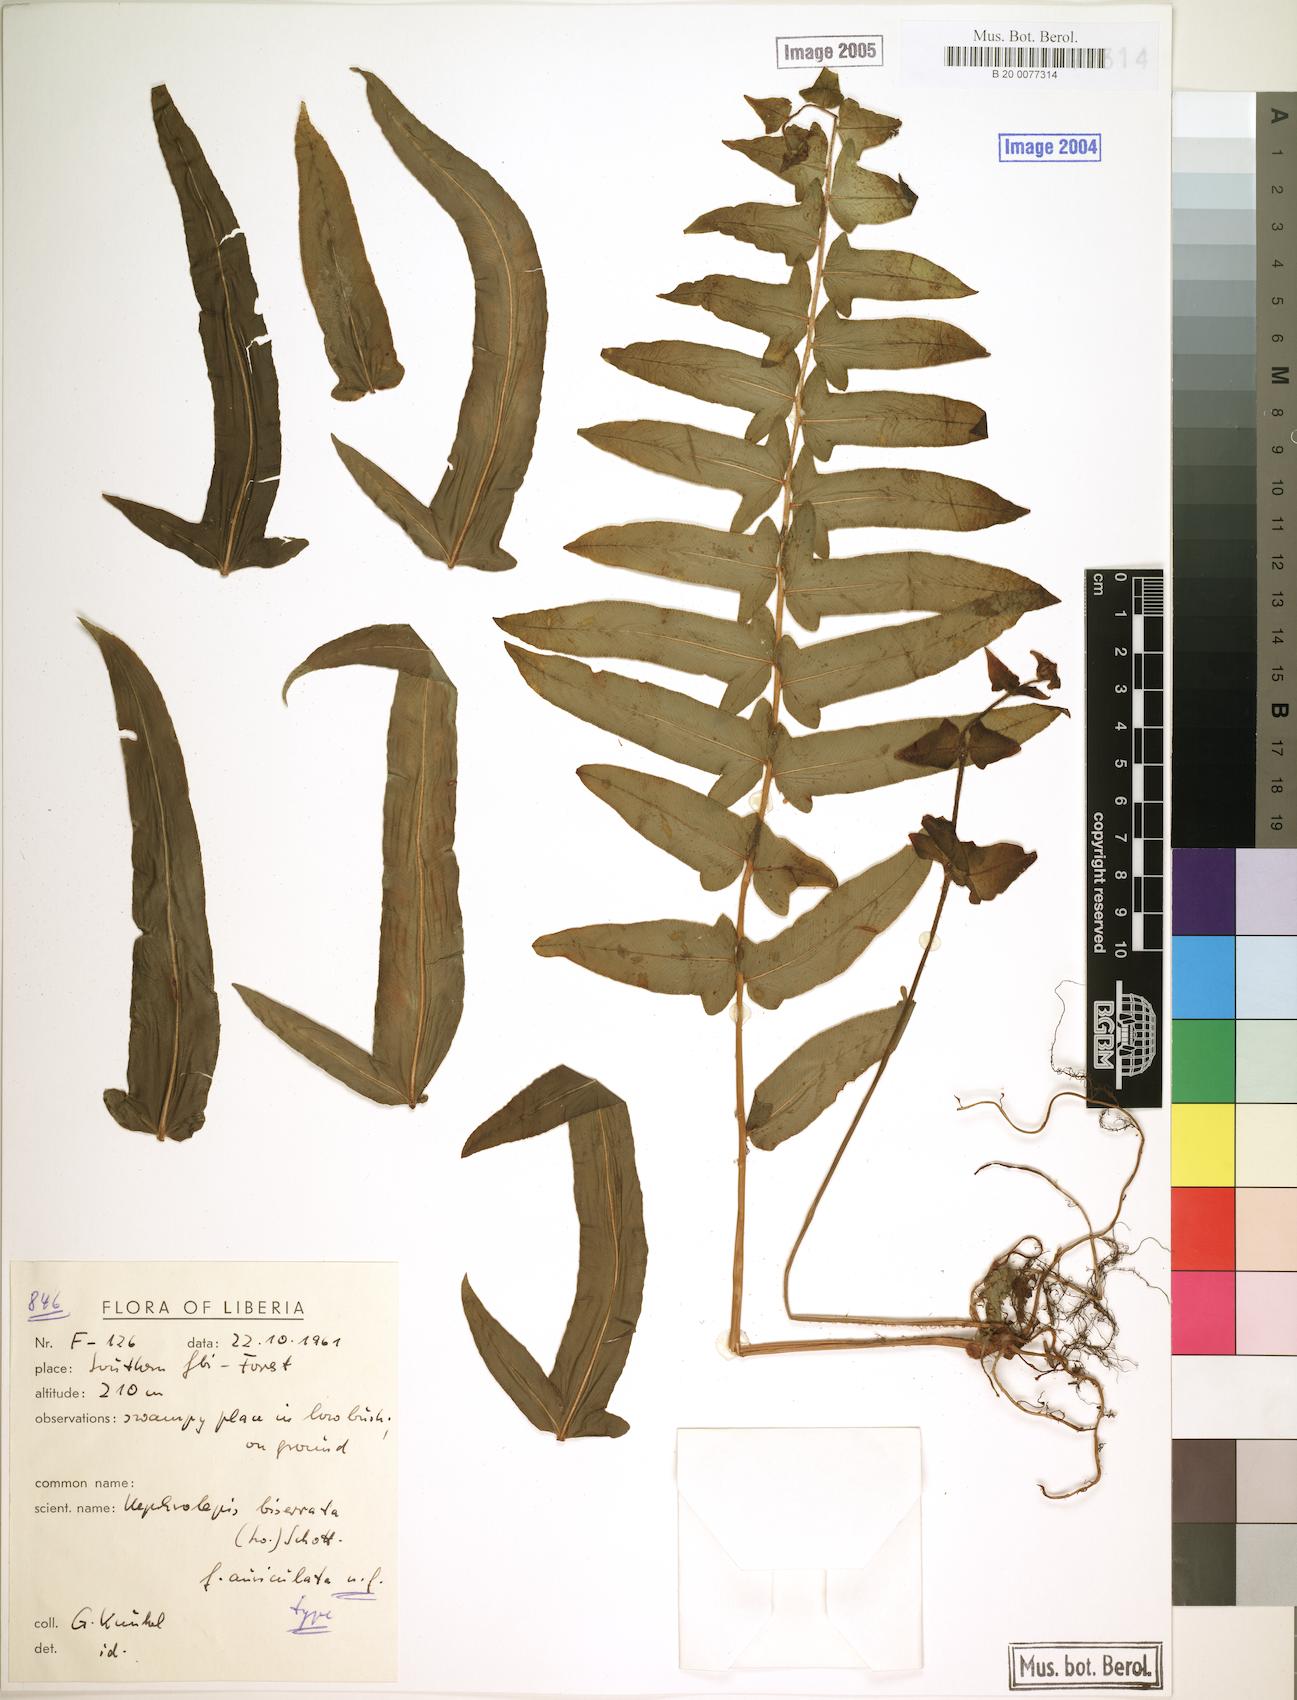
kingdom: Plantae
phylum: Tracheophyta
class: Polypodiopsida
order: Polypodiales
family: Nephrolepidaceae
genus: Nephrolepis
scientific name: Nephrolepis biserrata
